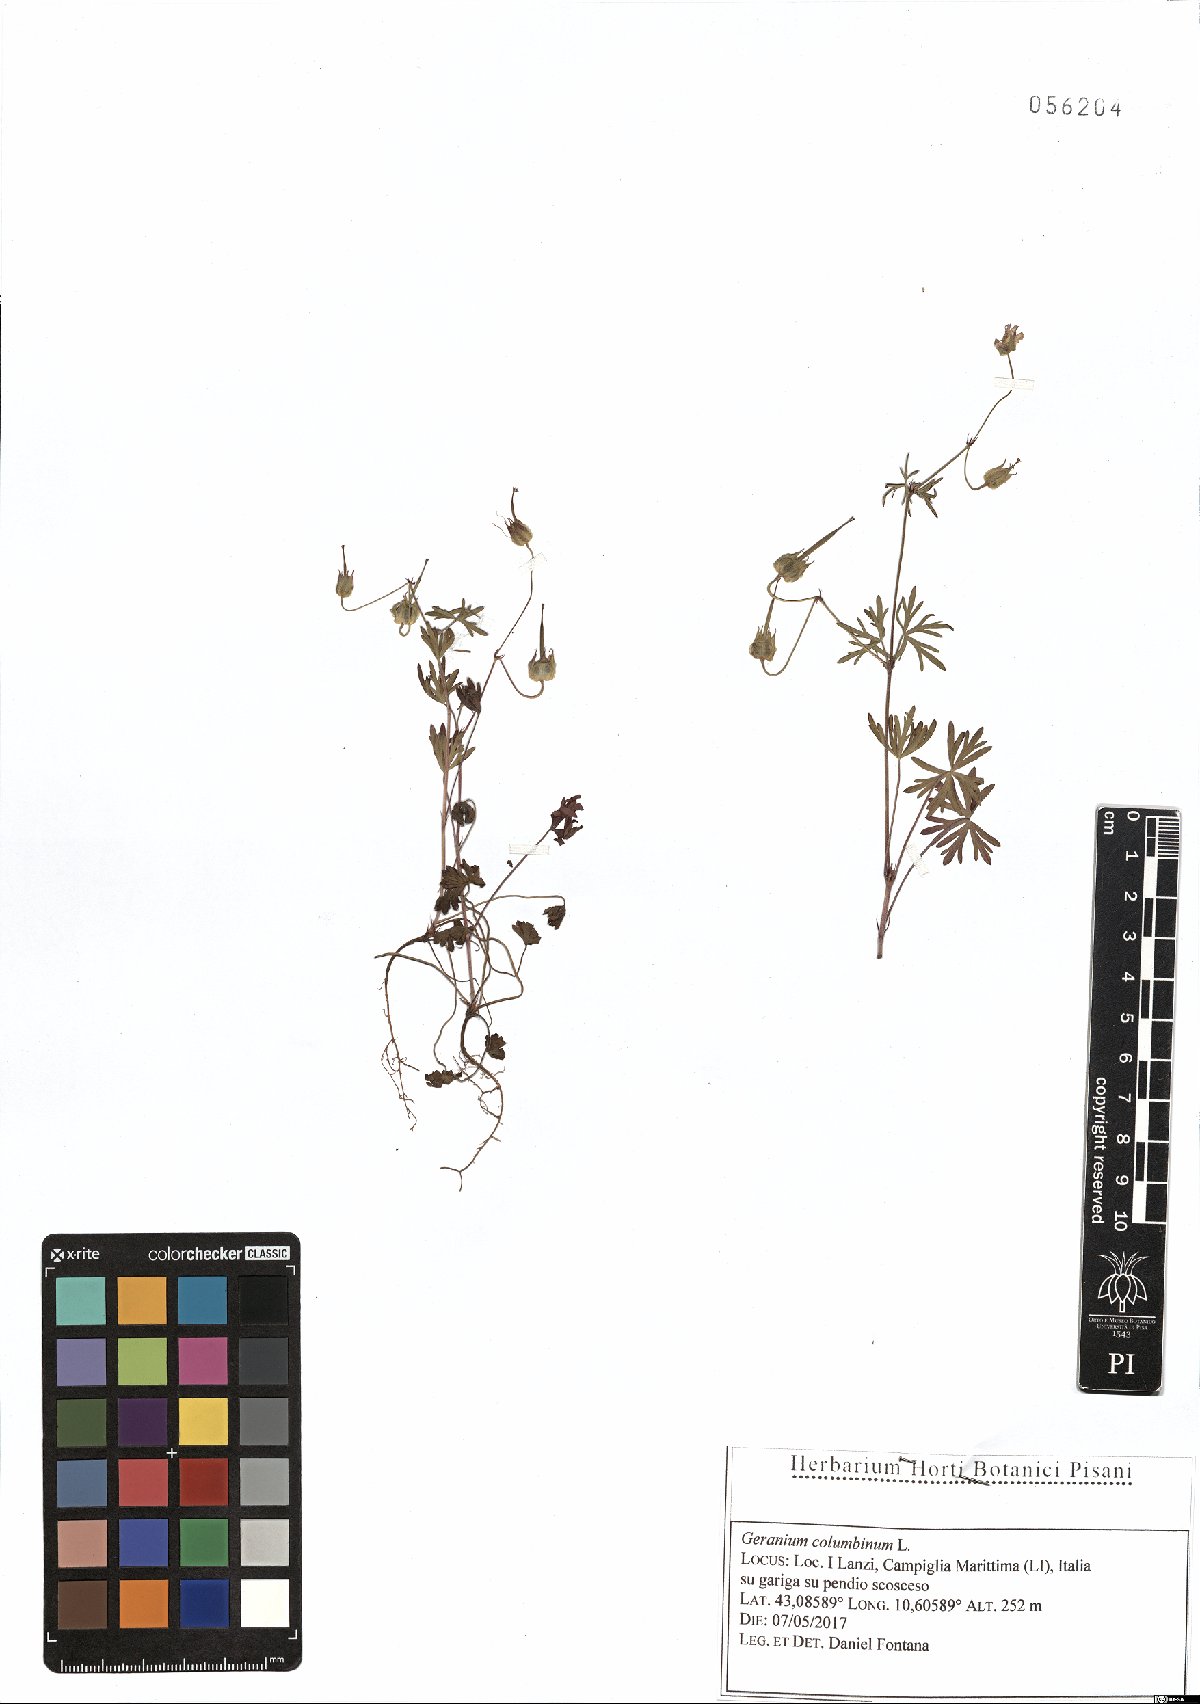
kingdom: Plantae
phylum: Tracheophyta
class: Magnoliopsida
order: Geraniales
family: Geraniaceae
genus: Geranium
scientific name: Geranium columbinum
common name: Long-stalked crane's-bill
